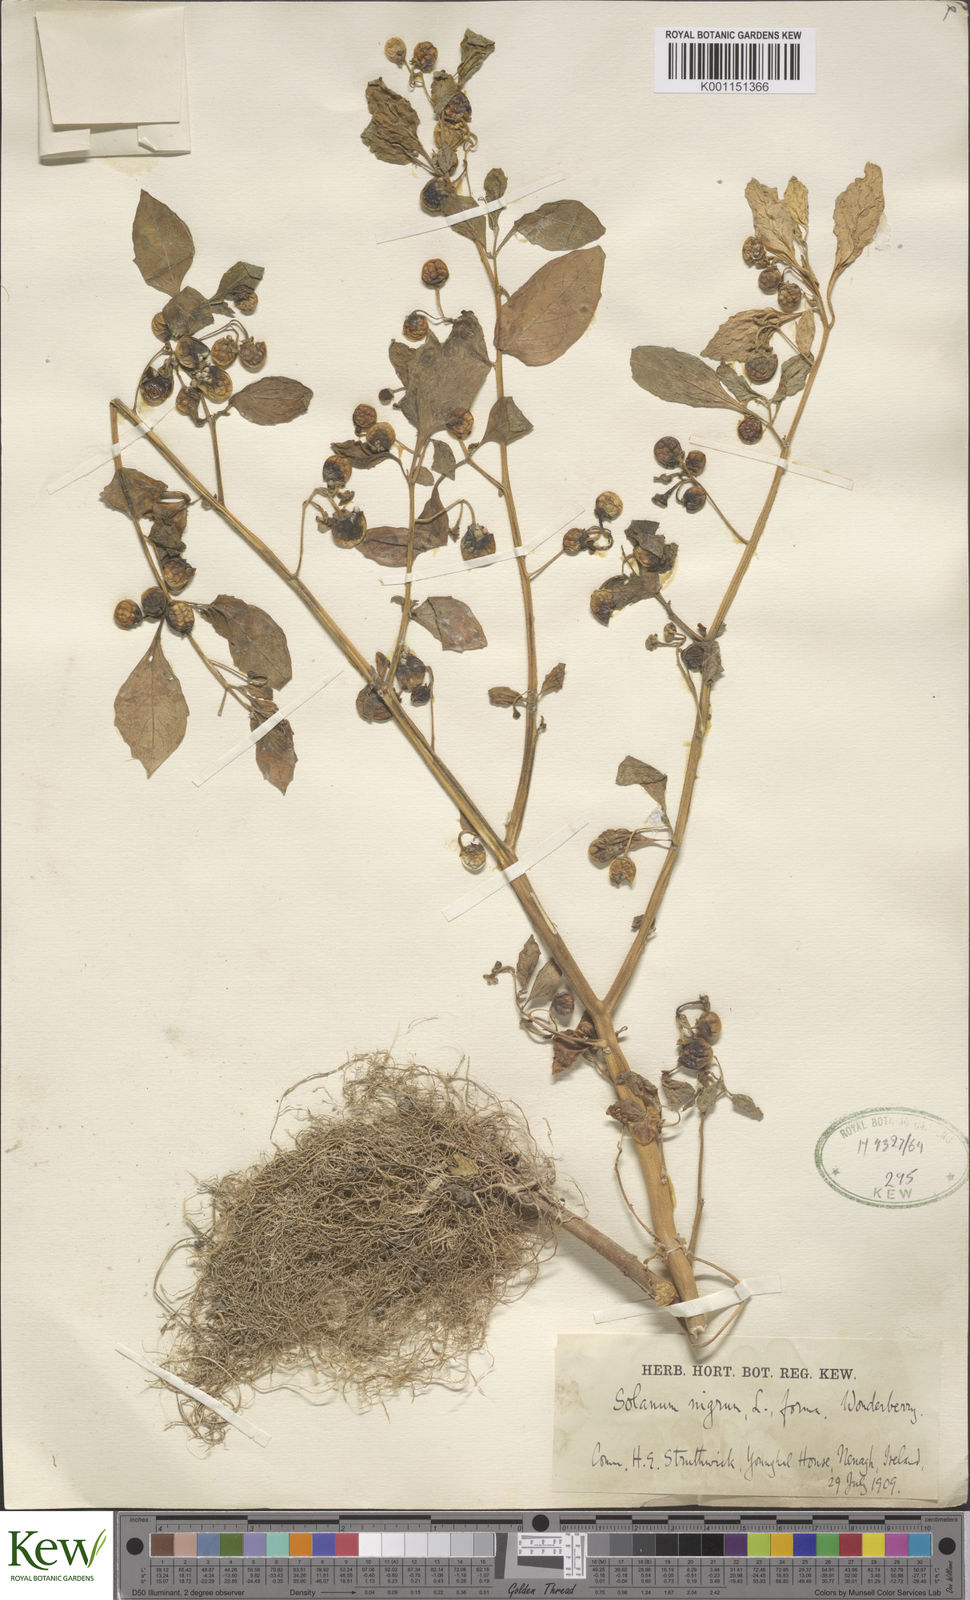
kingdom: Plantae
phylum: Tracheophyta
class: Magnoliopsida
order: Solanales
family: Solanaceae
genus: Solanum
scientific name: Solanum scabrum
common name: Garden-huckleberry
